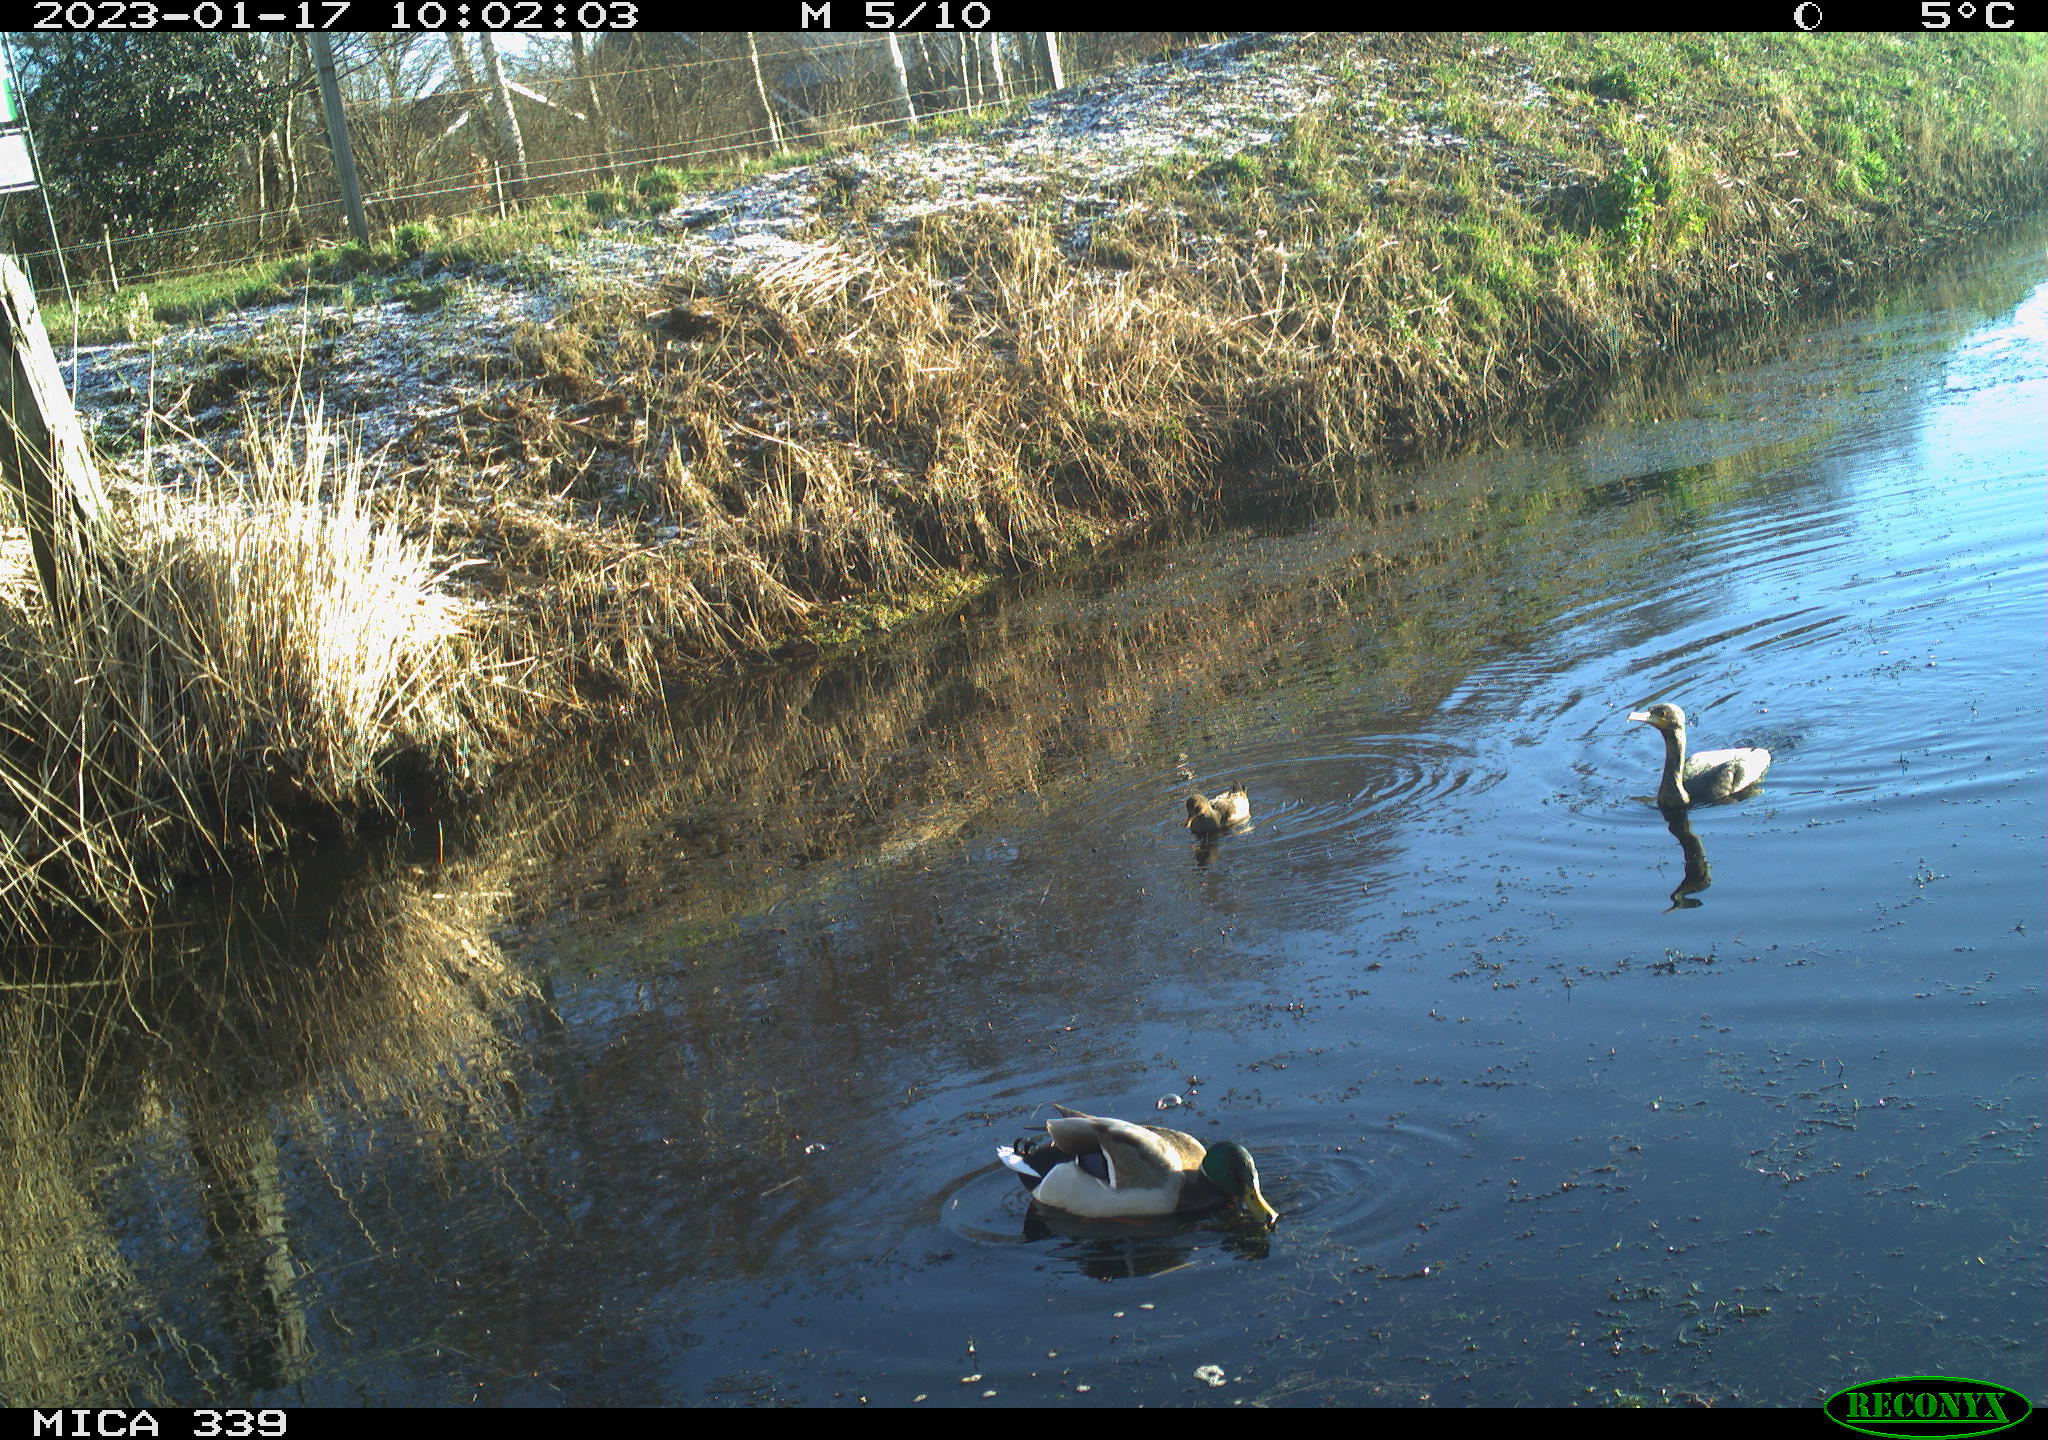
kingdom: Animalia
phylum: Chordata
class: Aves
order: Suliformes
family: Phalacrocoracidae
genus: Phalacrocorax
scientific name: Phalacrocorax carbo
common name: Great cormorant
